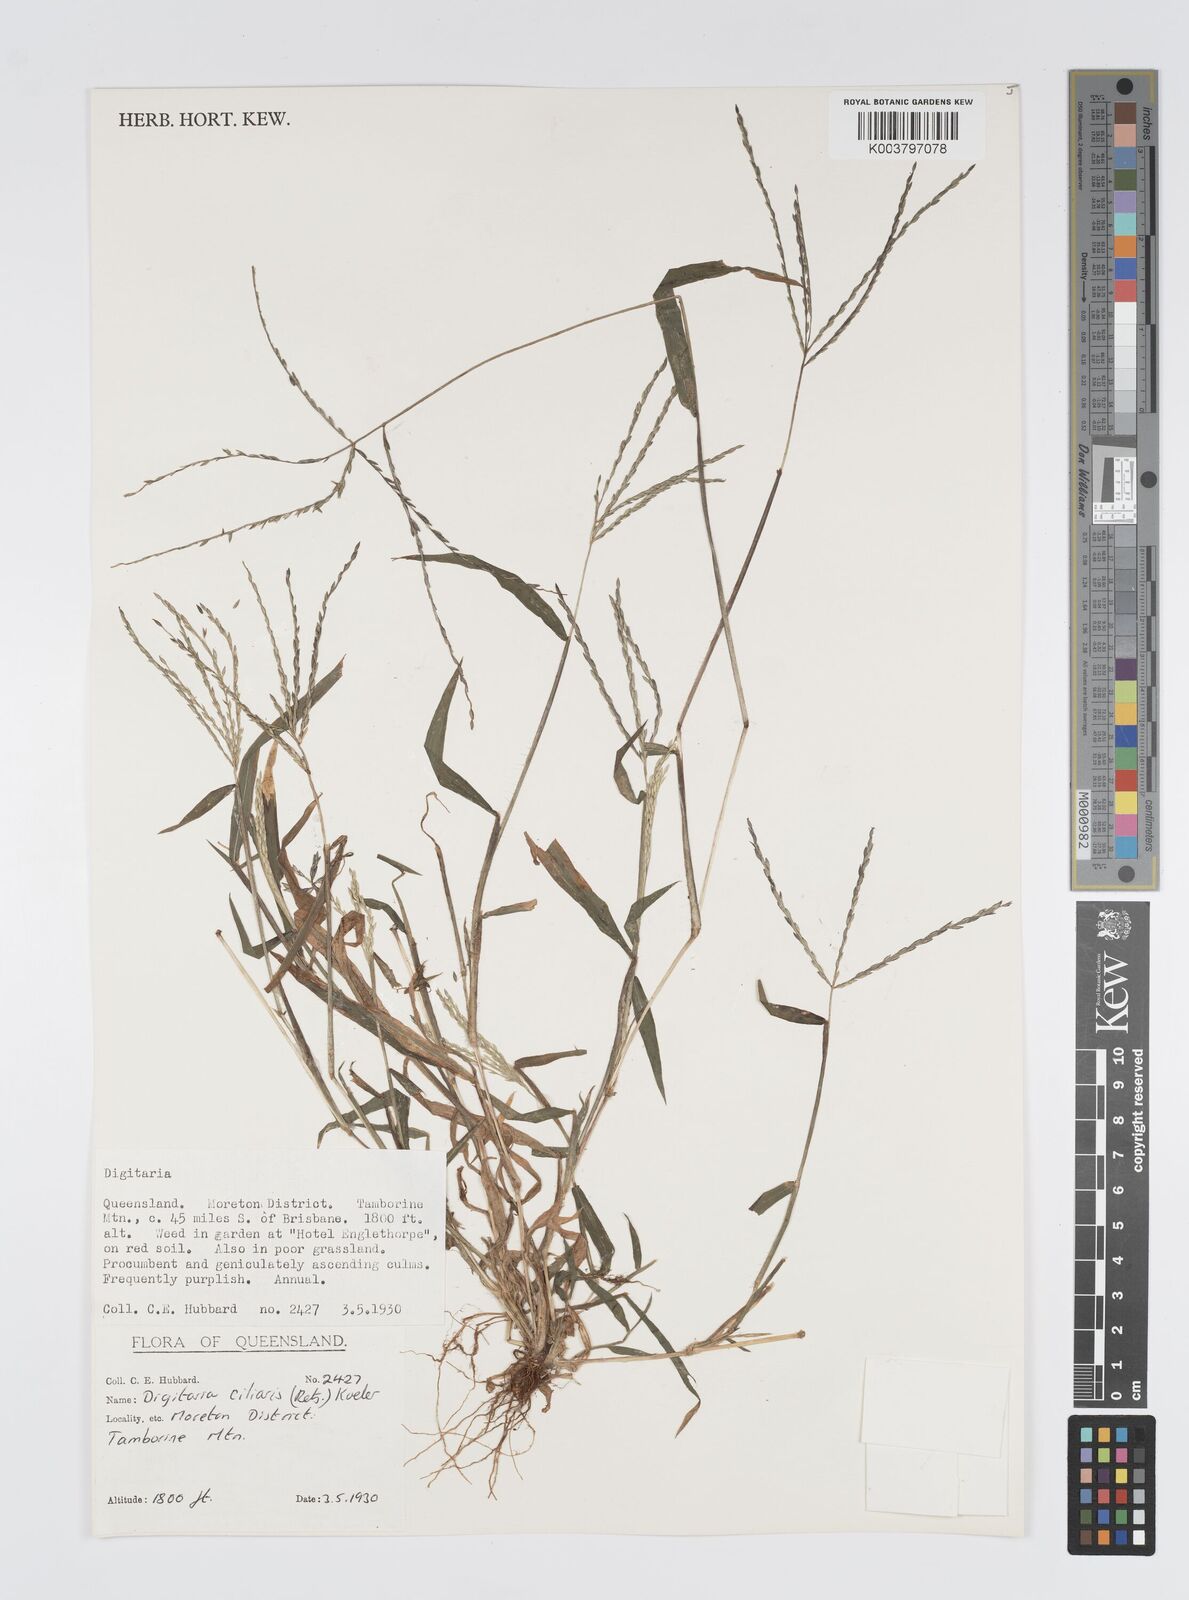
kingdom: Plantae
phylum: Tracheophyta
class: Liliopsida
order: Poales
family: Poaceae
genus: Digitaria
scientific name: Digitaria ciliaris
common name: Tropical finger-grass
